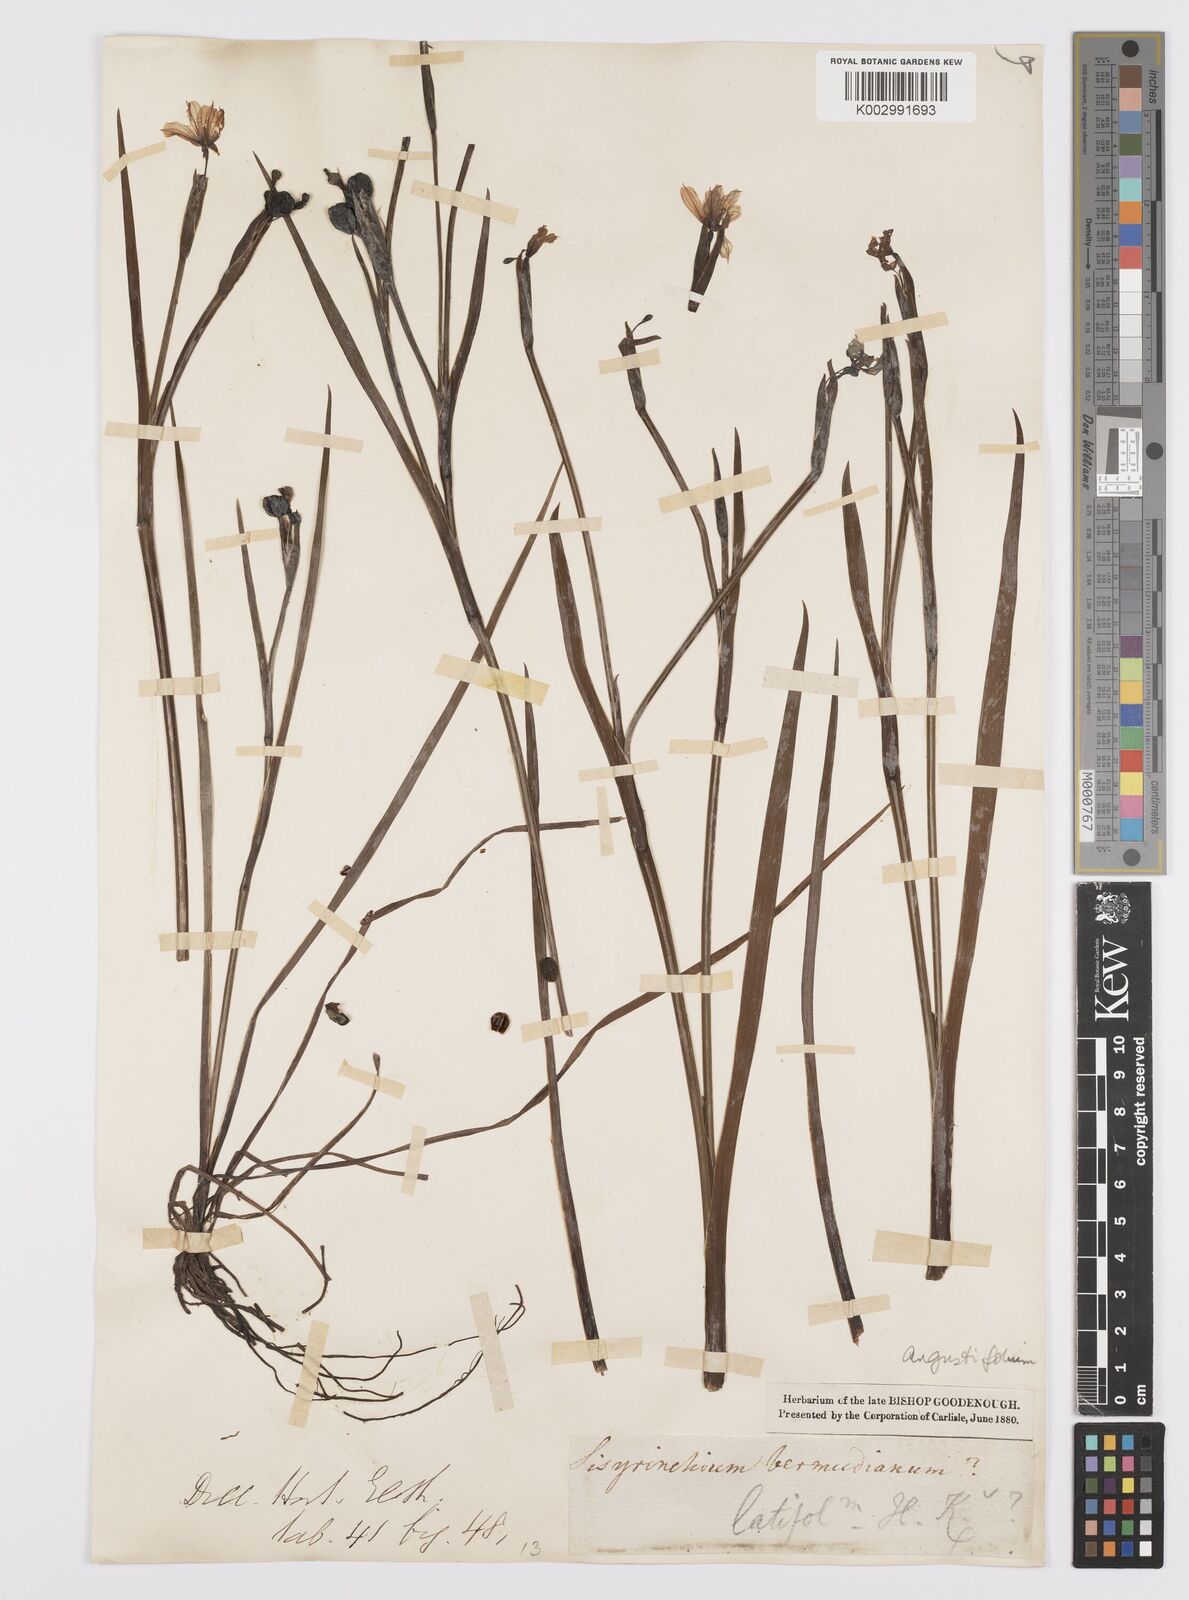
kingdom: Plantae
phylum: Tracheophyta
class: Liliopsida
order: Asparagales
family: Iridaceae
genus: Sisyrinchium
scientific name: Sisyrinchium
